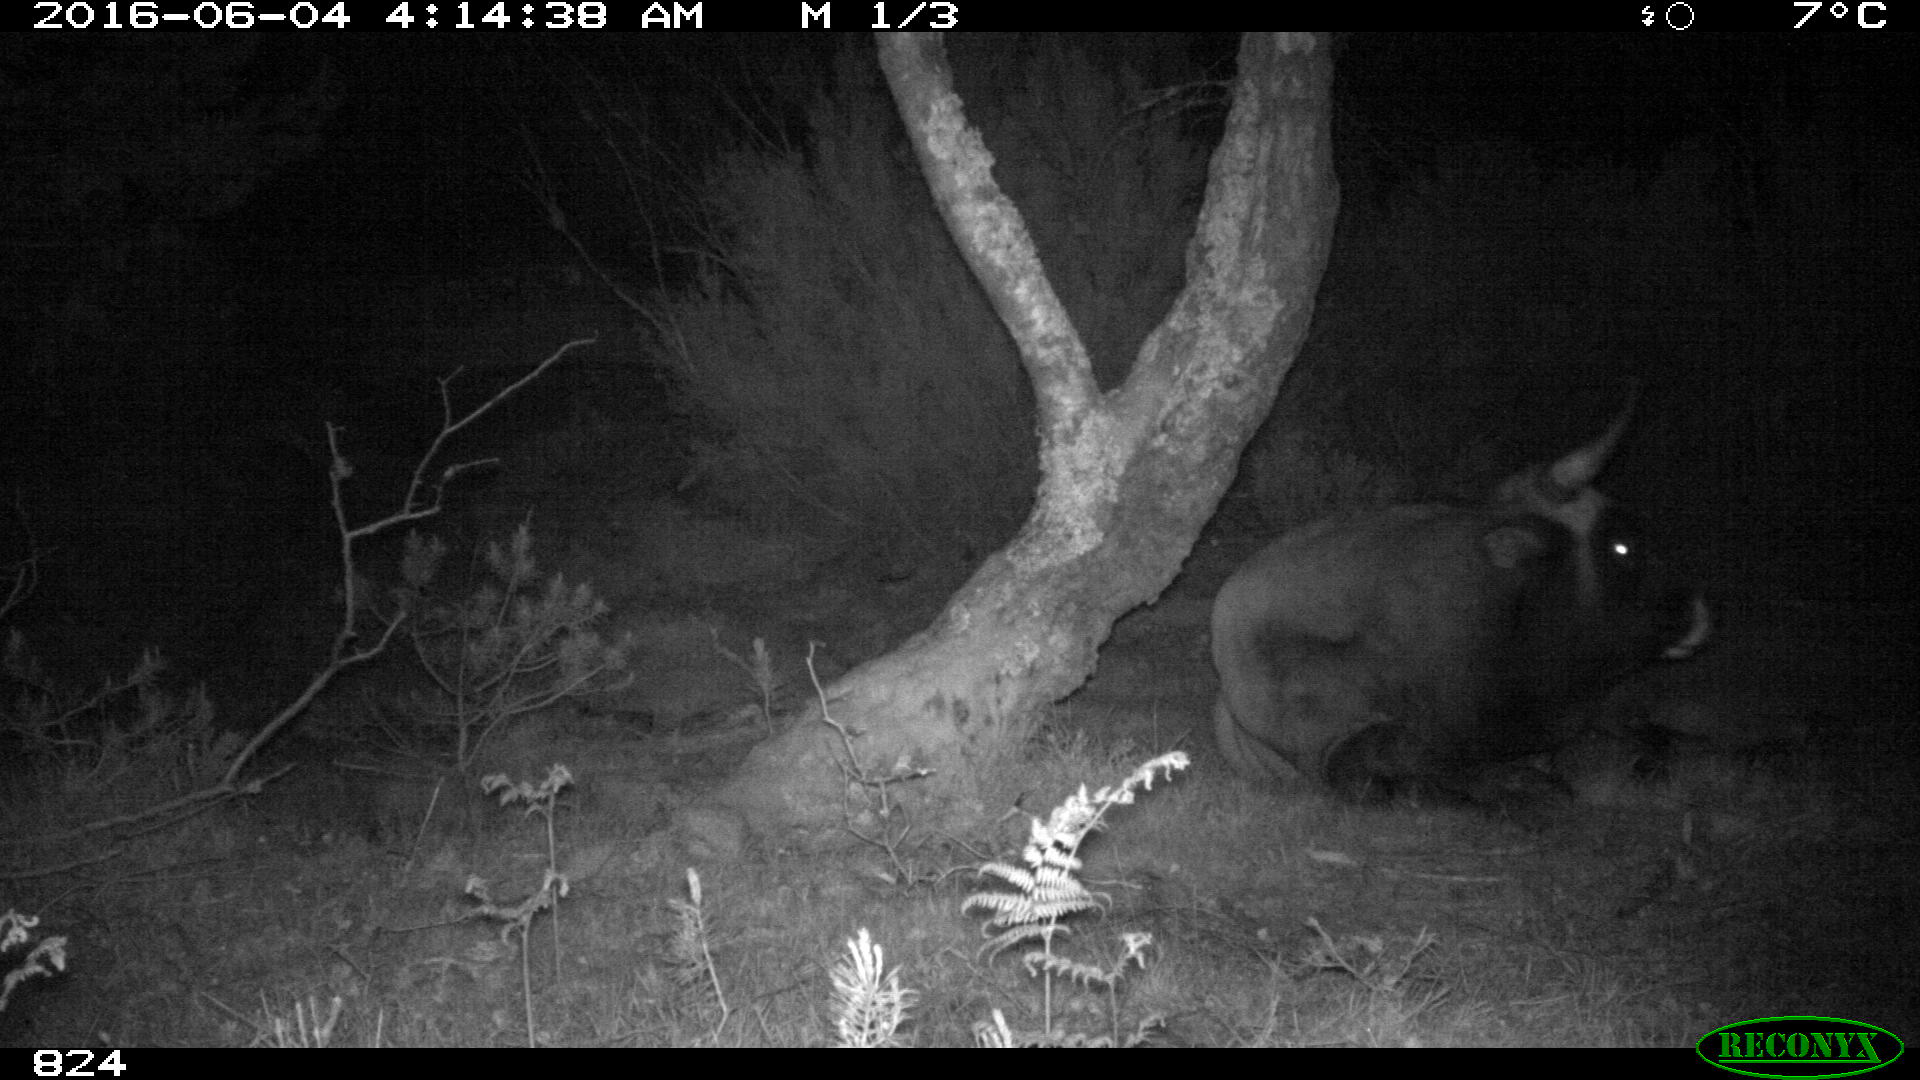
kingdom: Animalia
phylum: Chordata
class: Mammalia
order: Artiodactyla
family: Bovidae
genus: Bos
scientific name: Bos taurus
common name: Domesticated cattle
